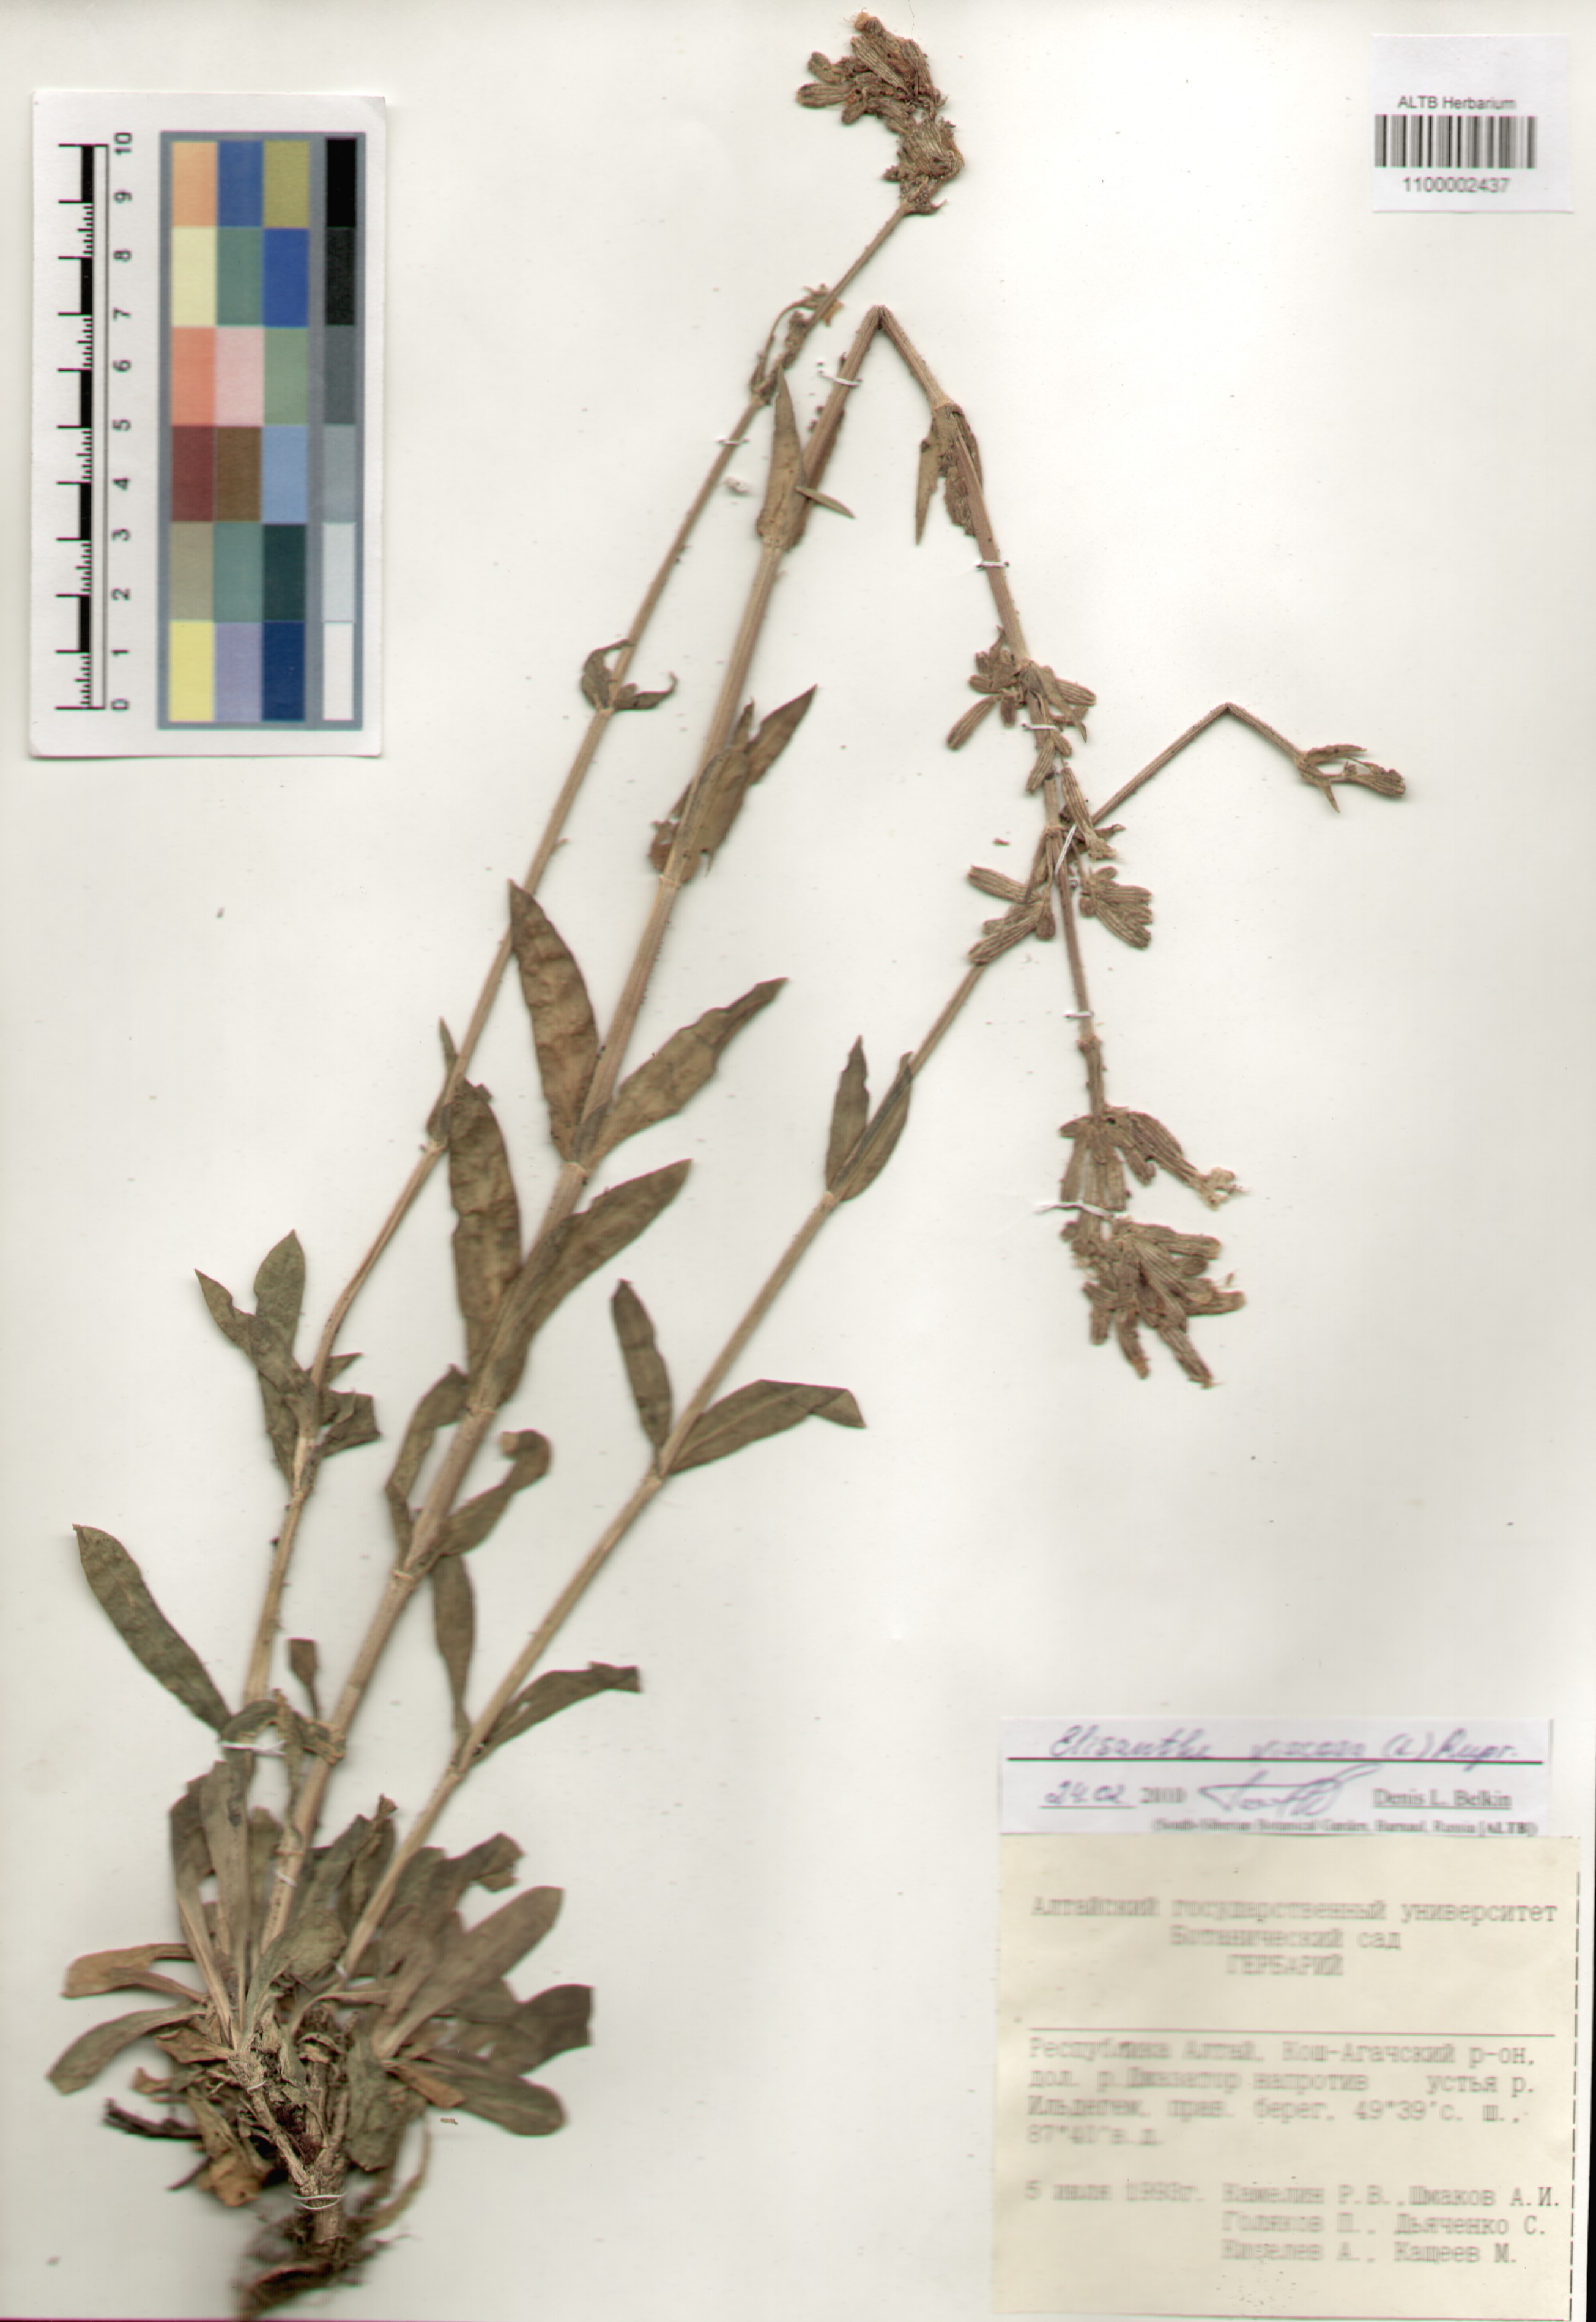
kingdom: Plantae
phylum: Tracheophyta
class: Magnoliopsida
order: Caryophyllales
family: Caryophyllaceae
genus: Silene
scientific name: Silene viscosa
